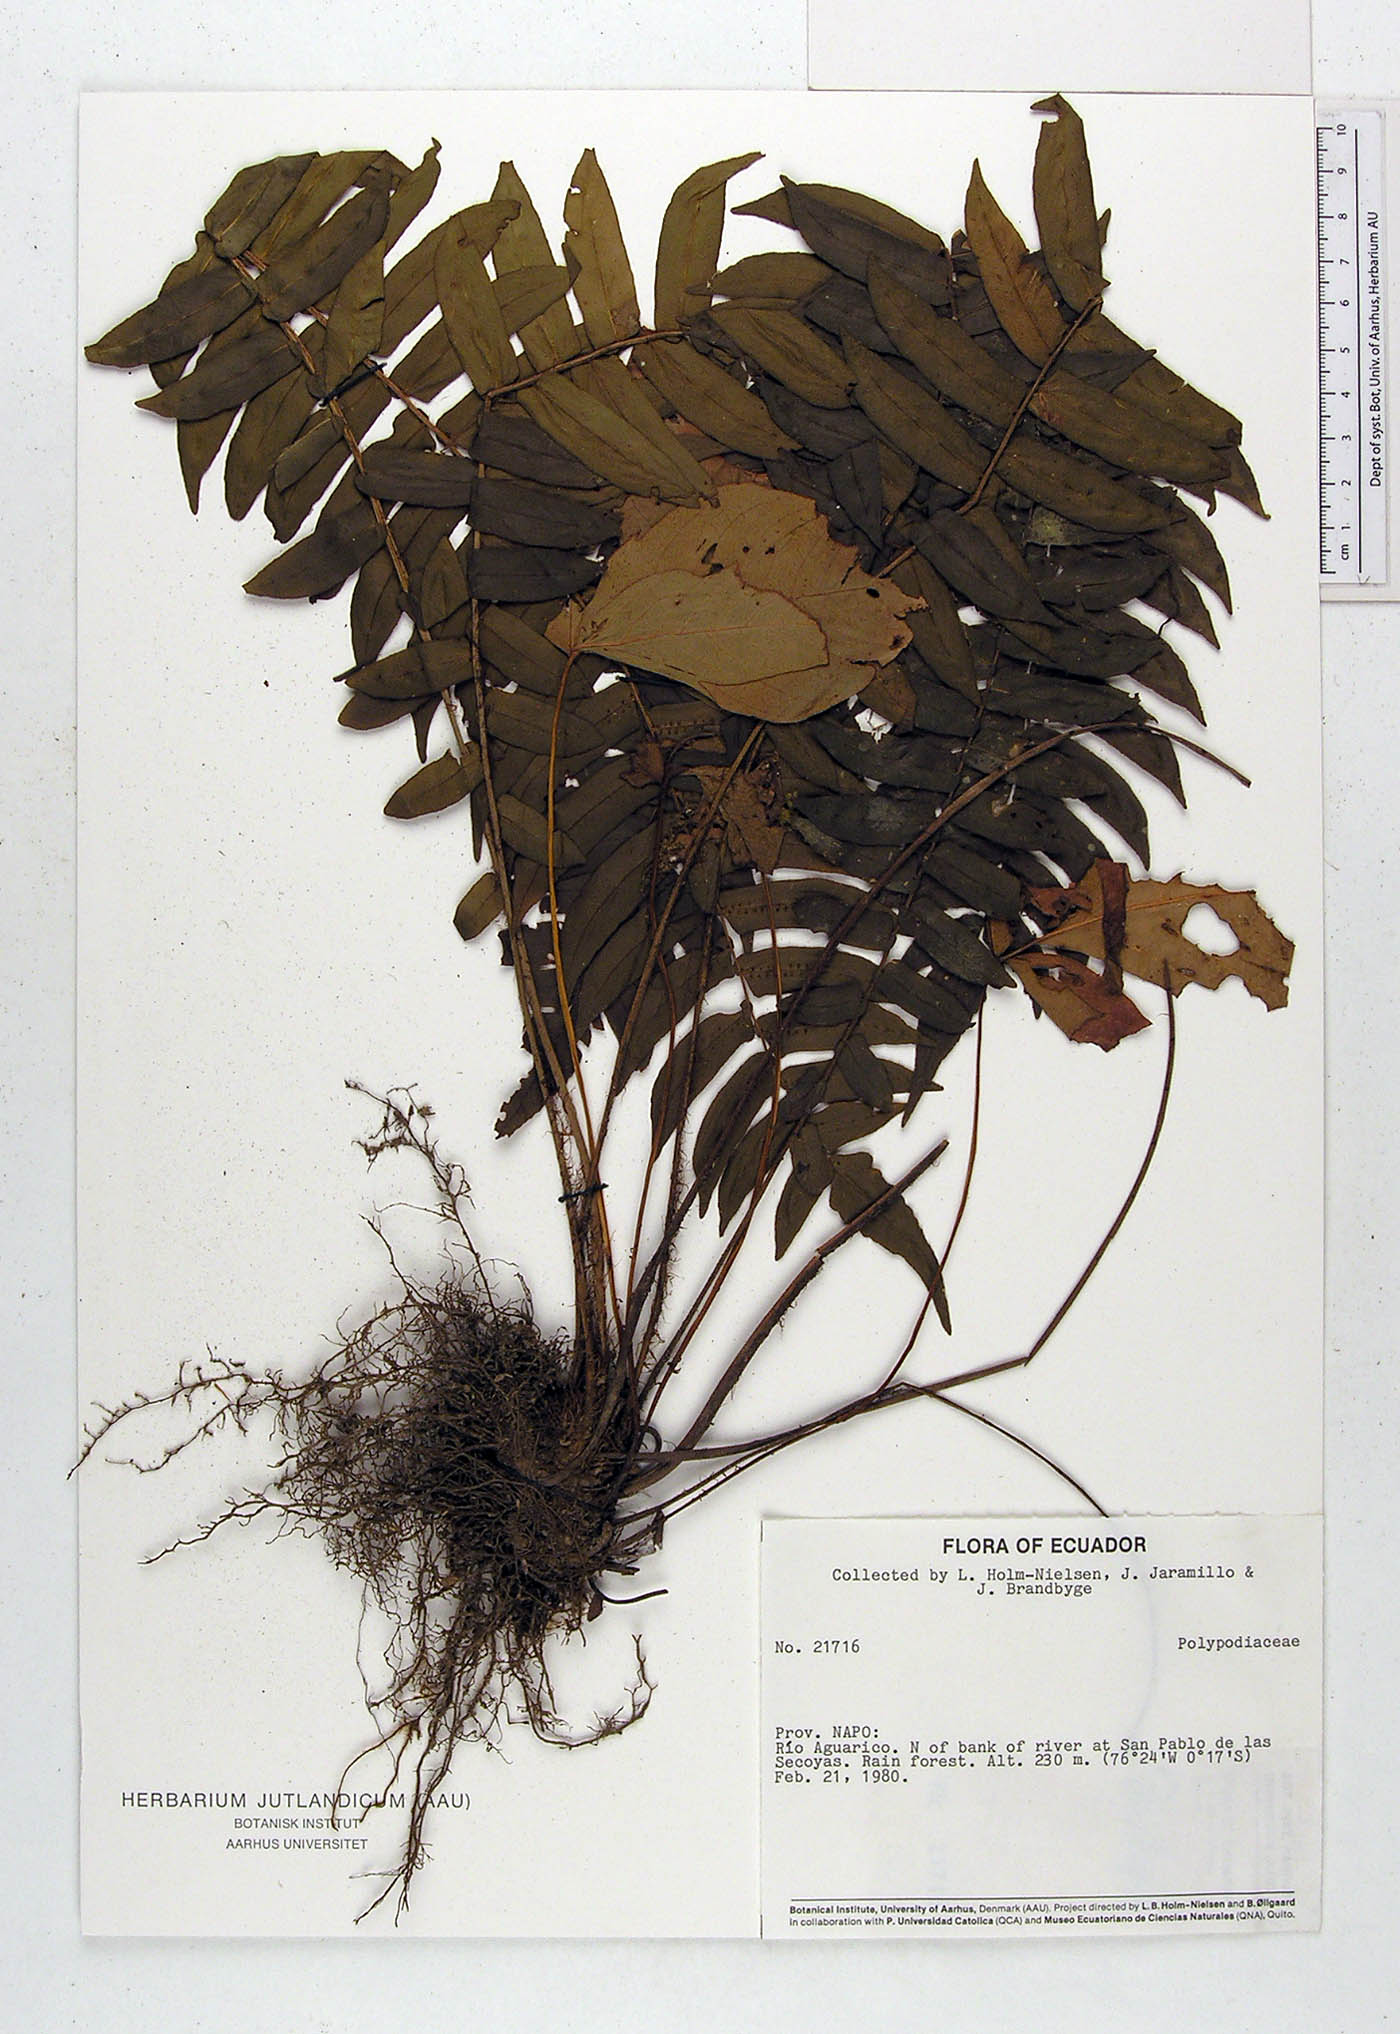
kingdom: Plantae
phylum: Tracheophyta
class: Polypodiopsida
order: Polypodiales
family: Lomariopsidaceae
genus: Cyclopeltis
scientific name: Cyclopeltis semicordata
